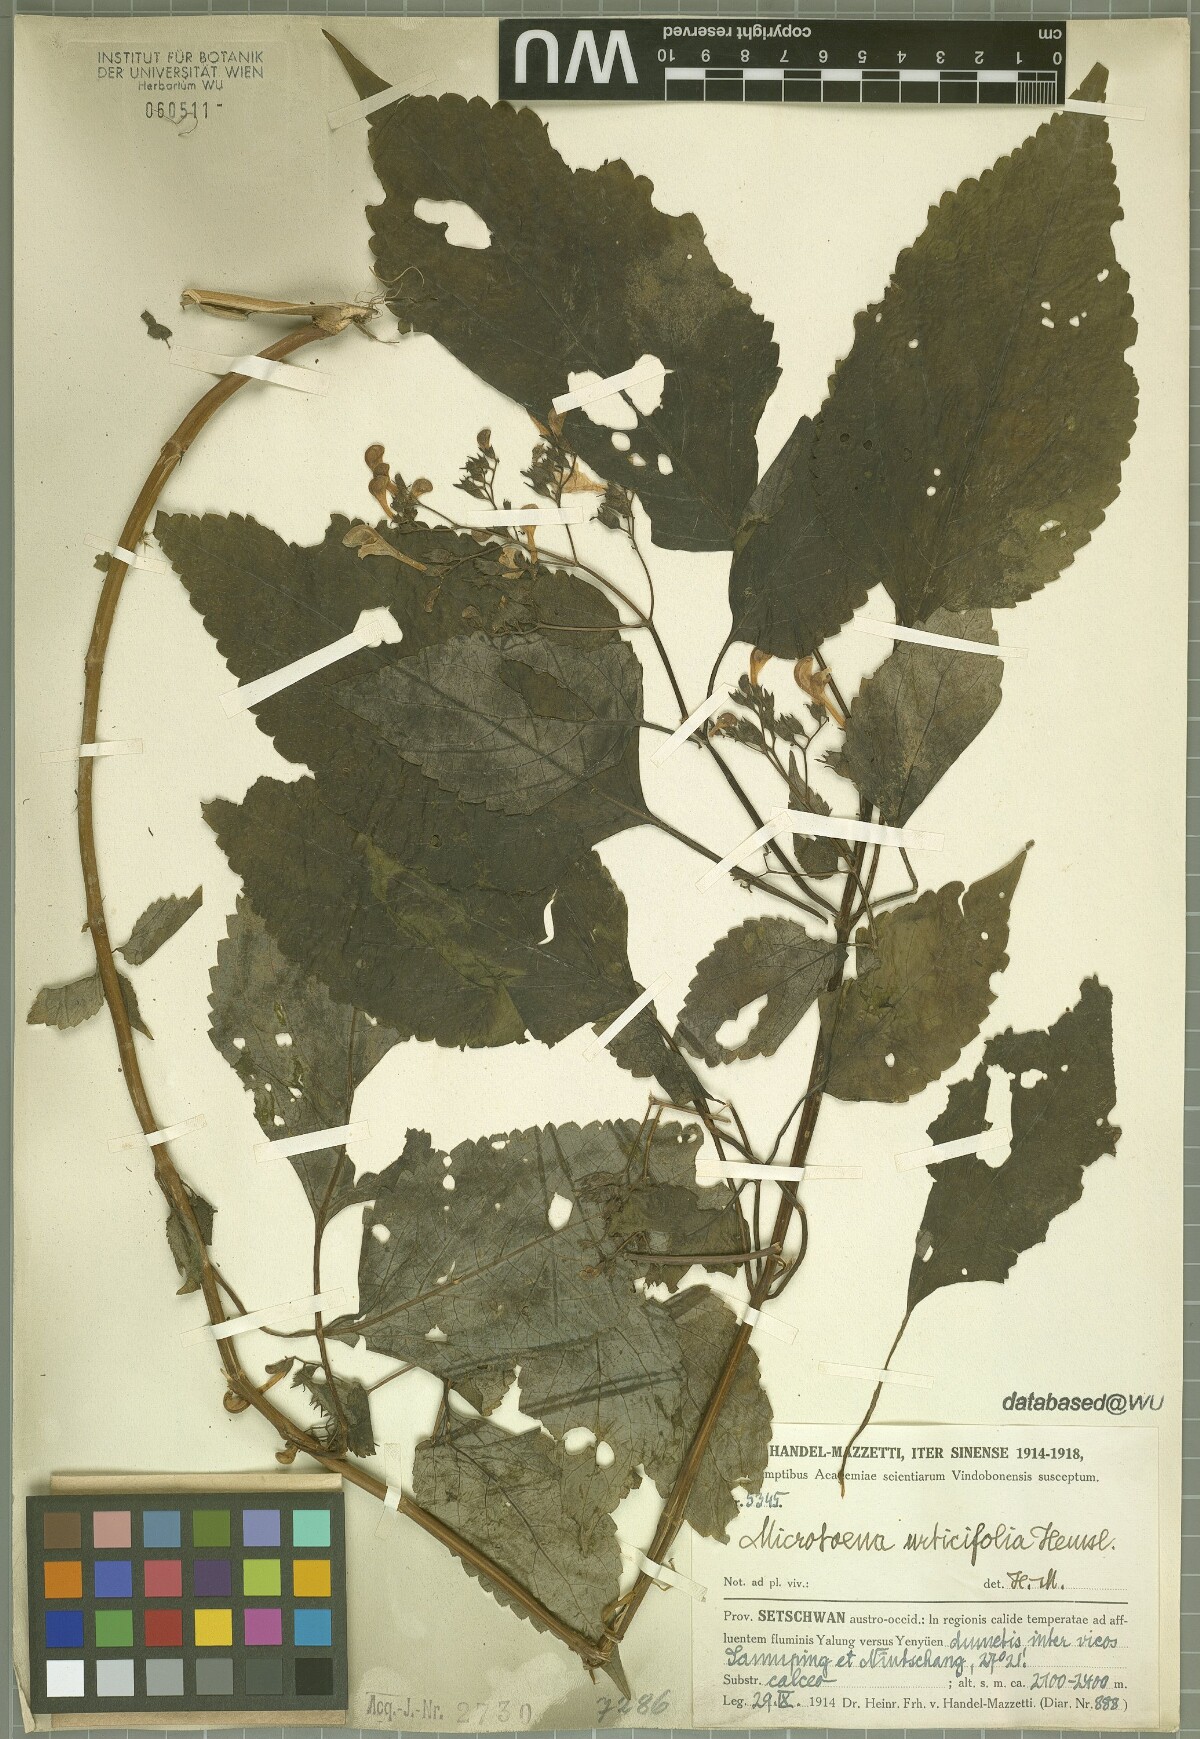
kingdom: Plantae
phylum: Tracheophyta
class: Magnoliopsida
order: Lamiales
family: Lamiaceae
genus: Microtoena
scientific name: Microtoena urticifolia
